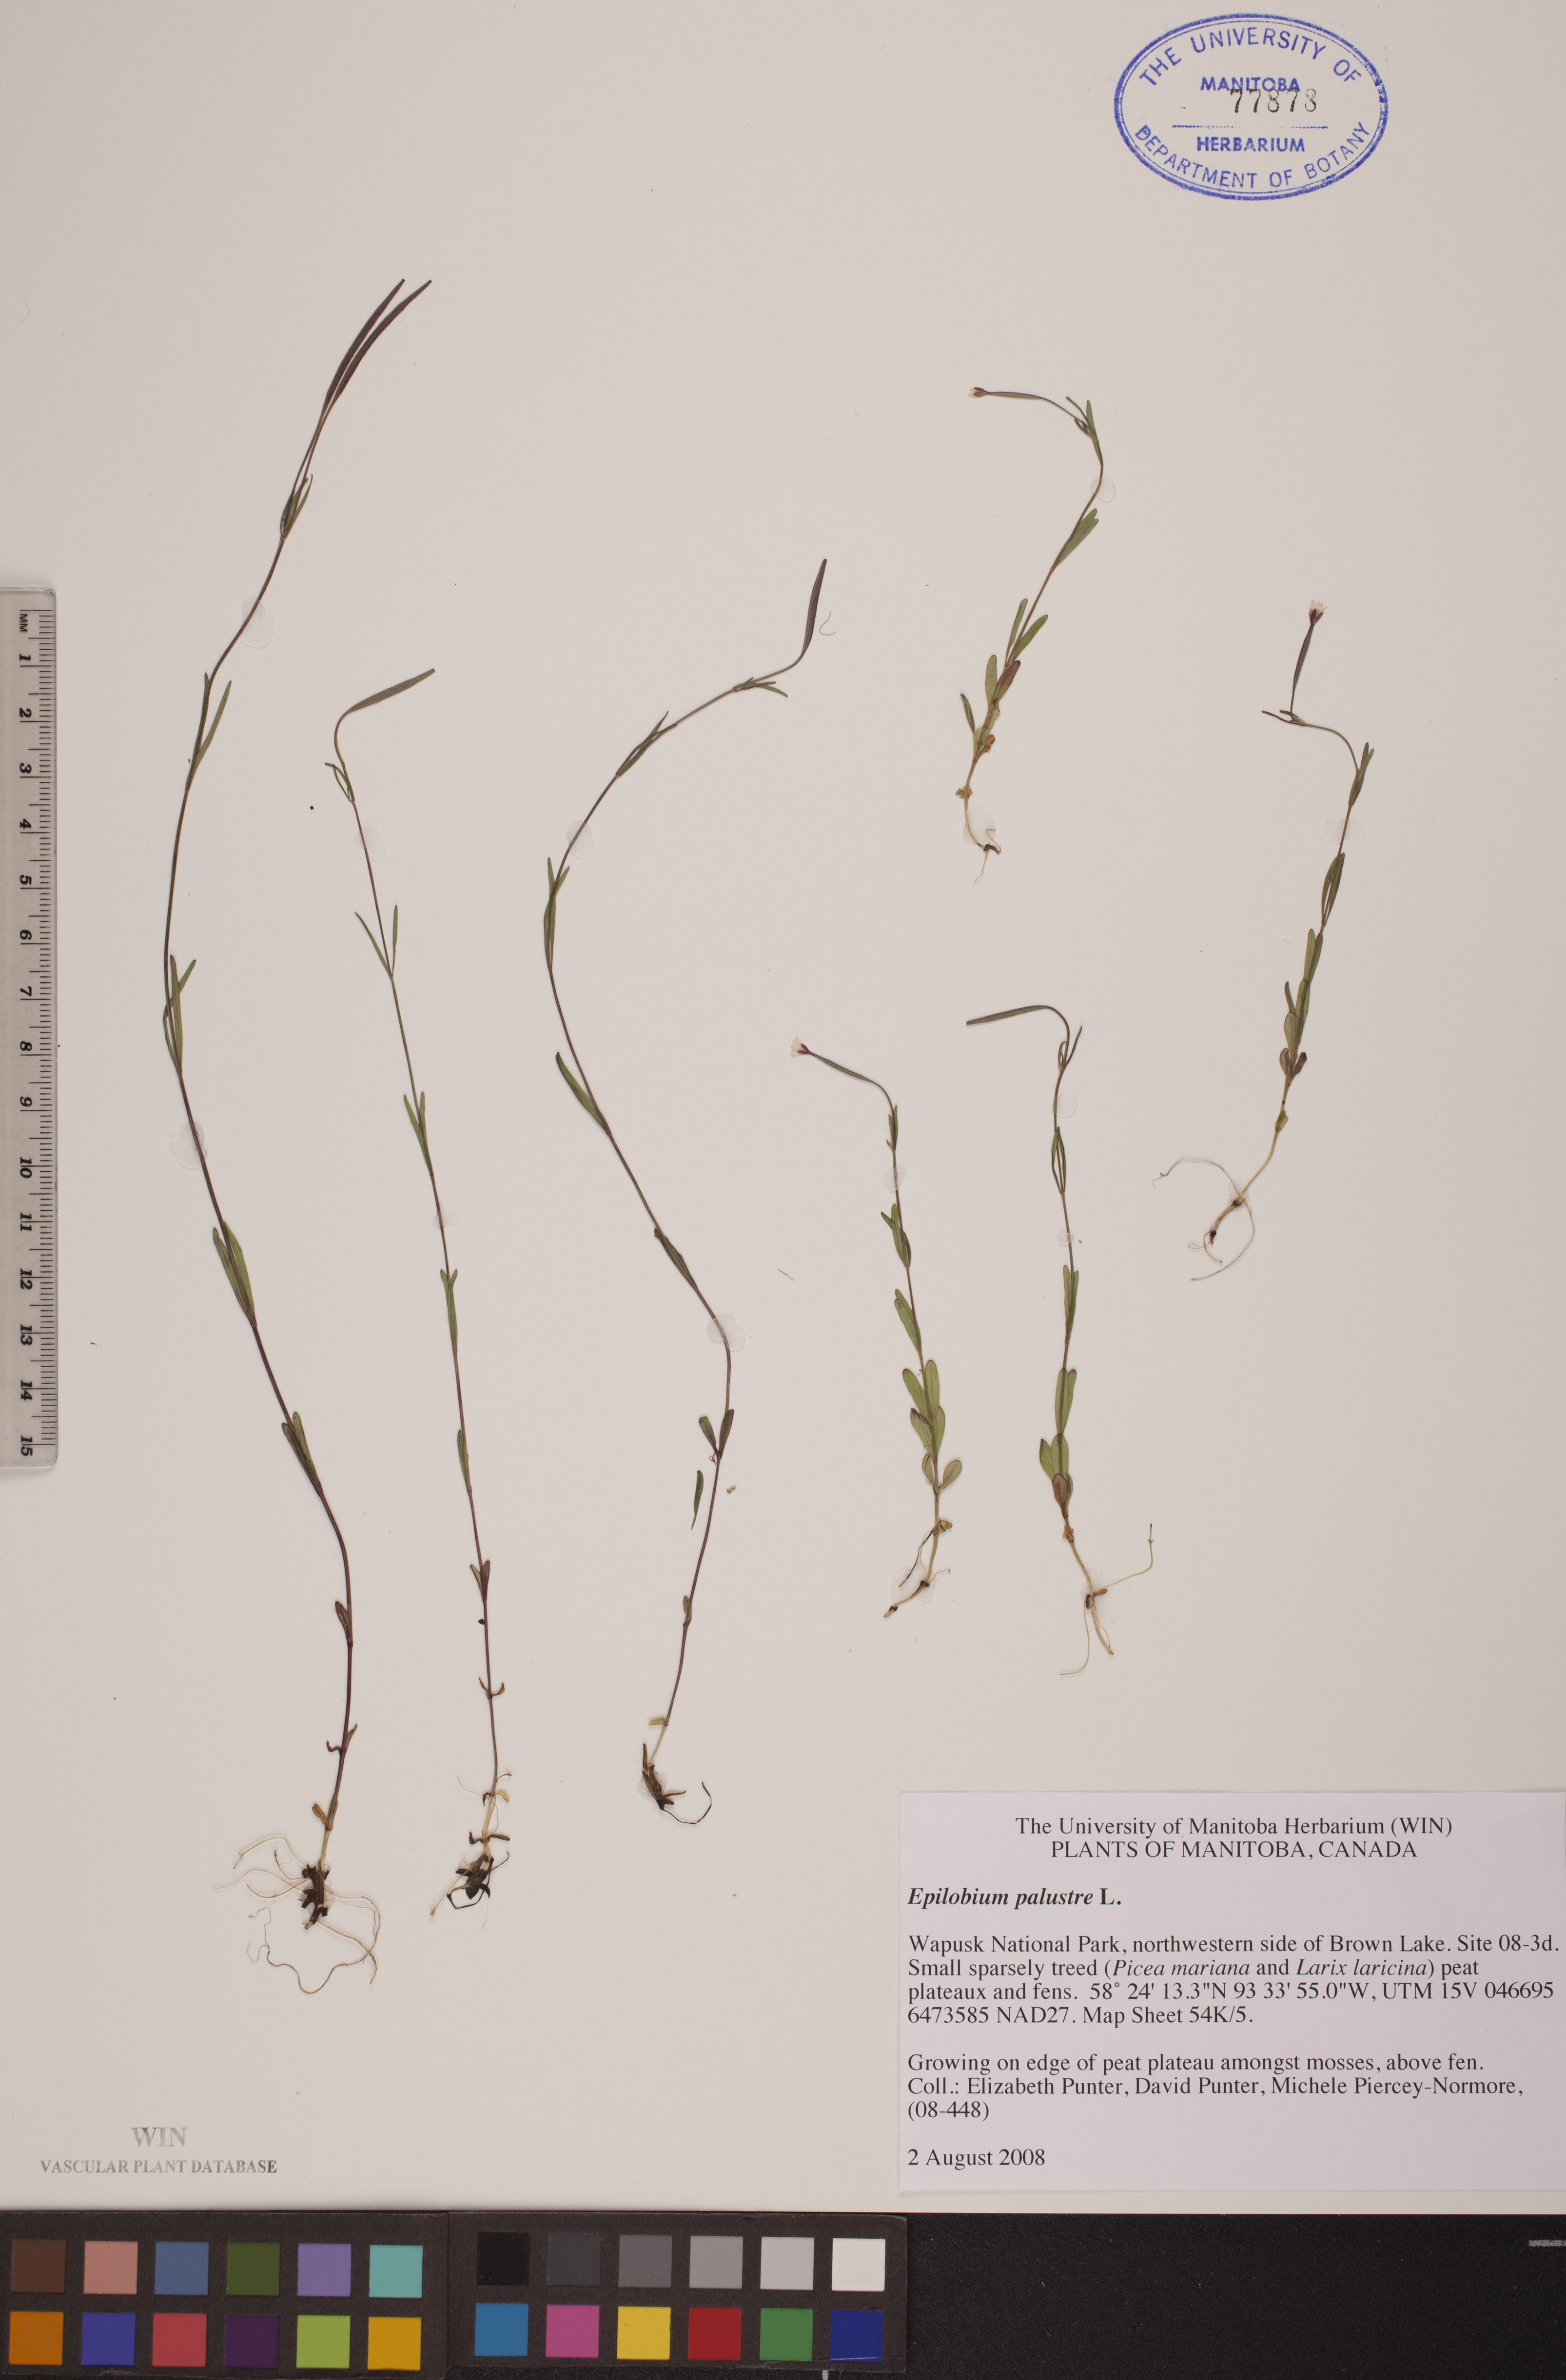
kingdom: Plantae
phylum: Tracheophyta
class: Magnoliopsida
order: Myrtales
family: Onagraceae
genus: Epilobium
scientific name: Epilobium palustre
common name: Marsh willowherb
